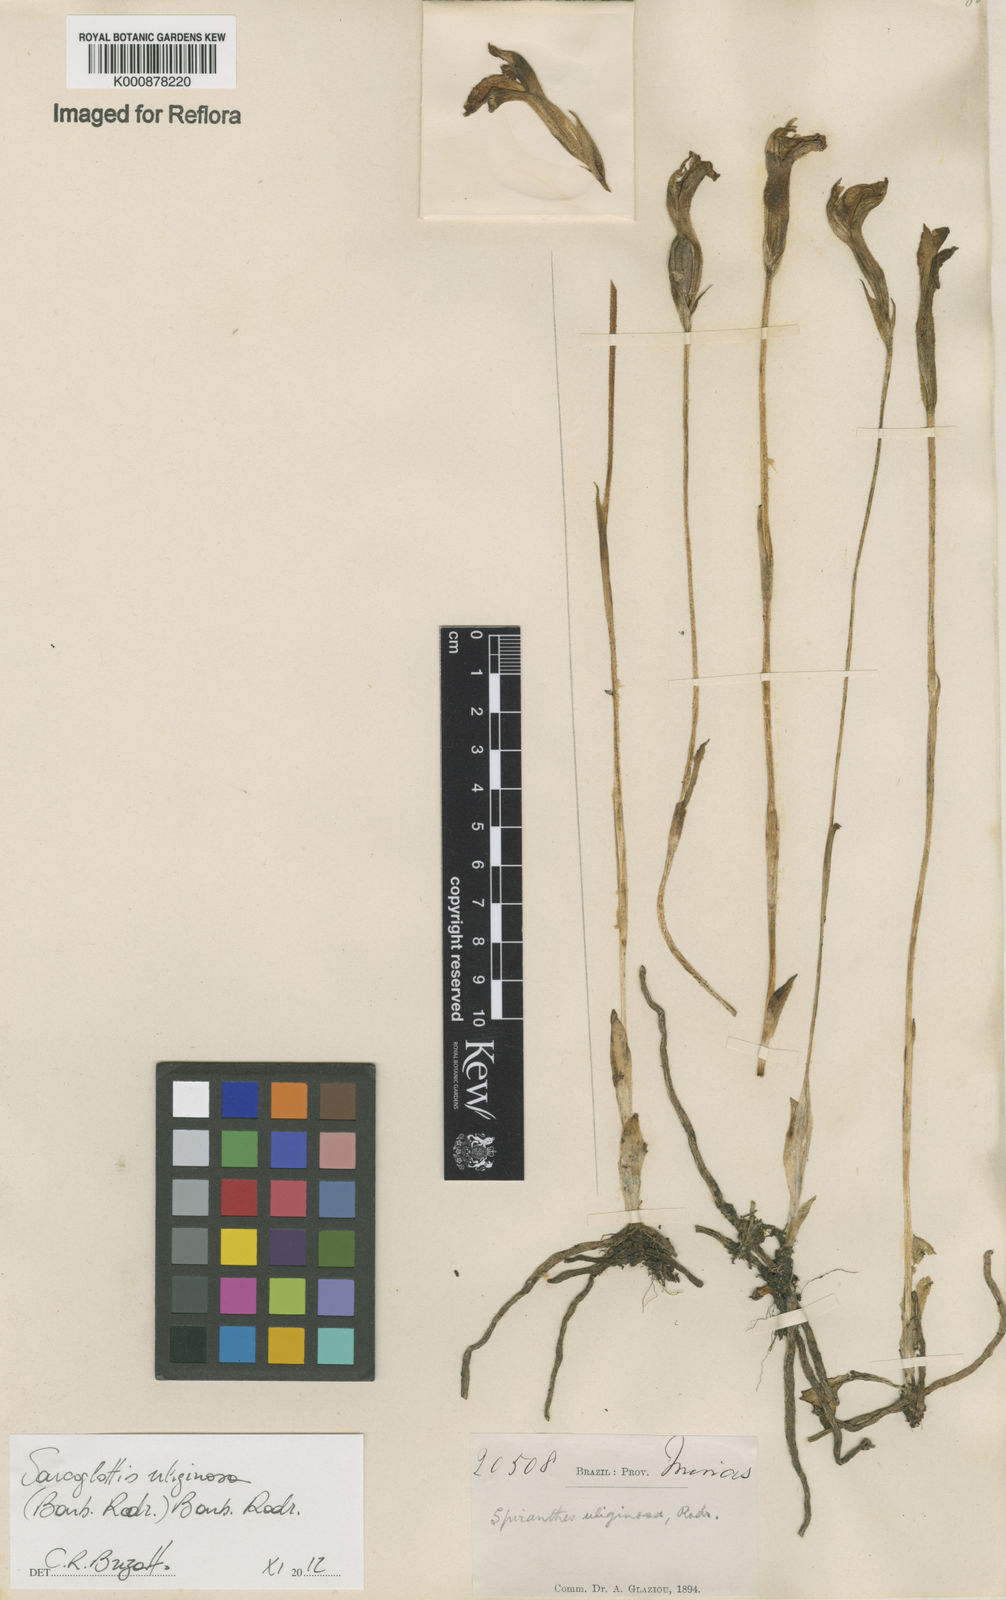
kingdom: Plantae
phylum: Tracheophyta
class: Liliopsida
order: Asparagales
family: Orchidaceae
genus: Sarcoglottis
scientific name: Sarcoglottis uliginosa
